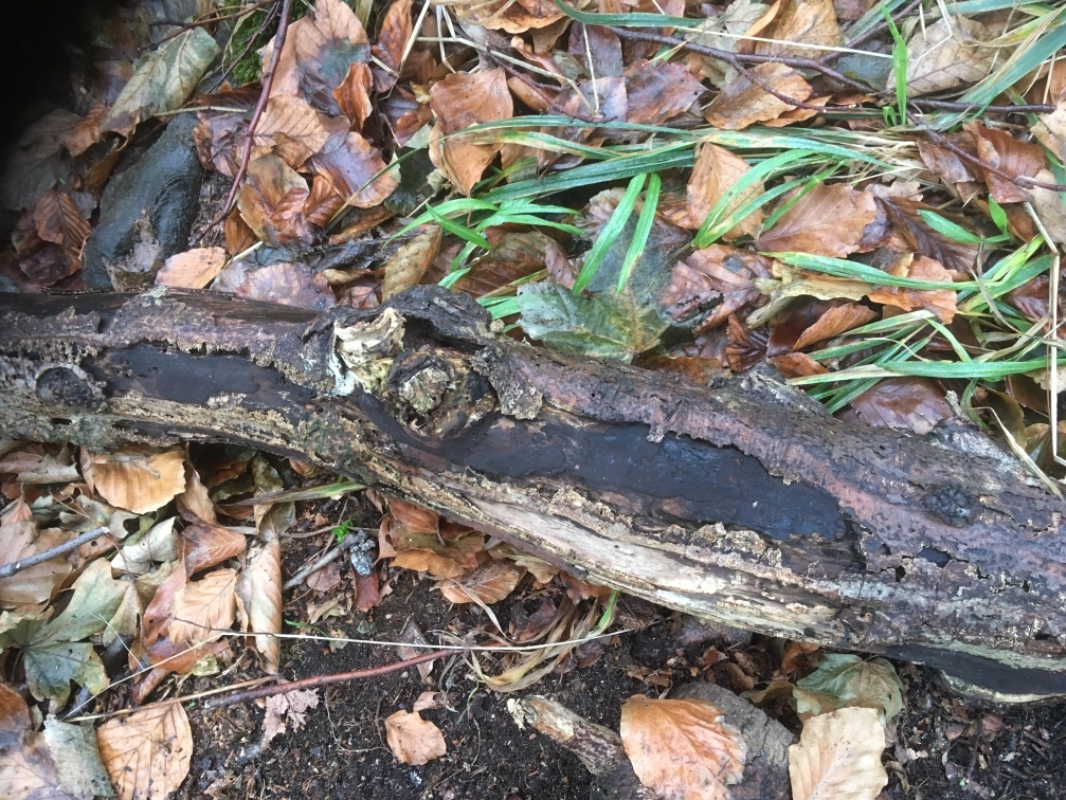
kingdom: Fungi
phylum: Ascomycota
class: Sordariomycetes
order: Xylariales
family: Hypoxylaceae
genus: Hypoxylon
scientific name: Hypoxylon macrocarpum
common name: skorpe-kulbær
